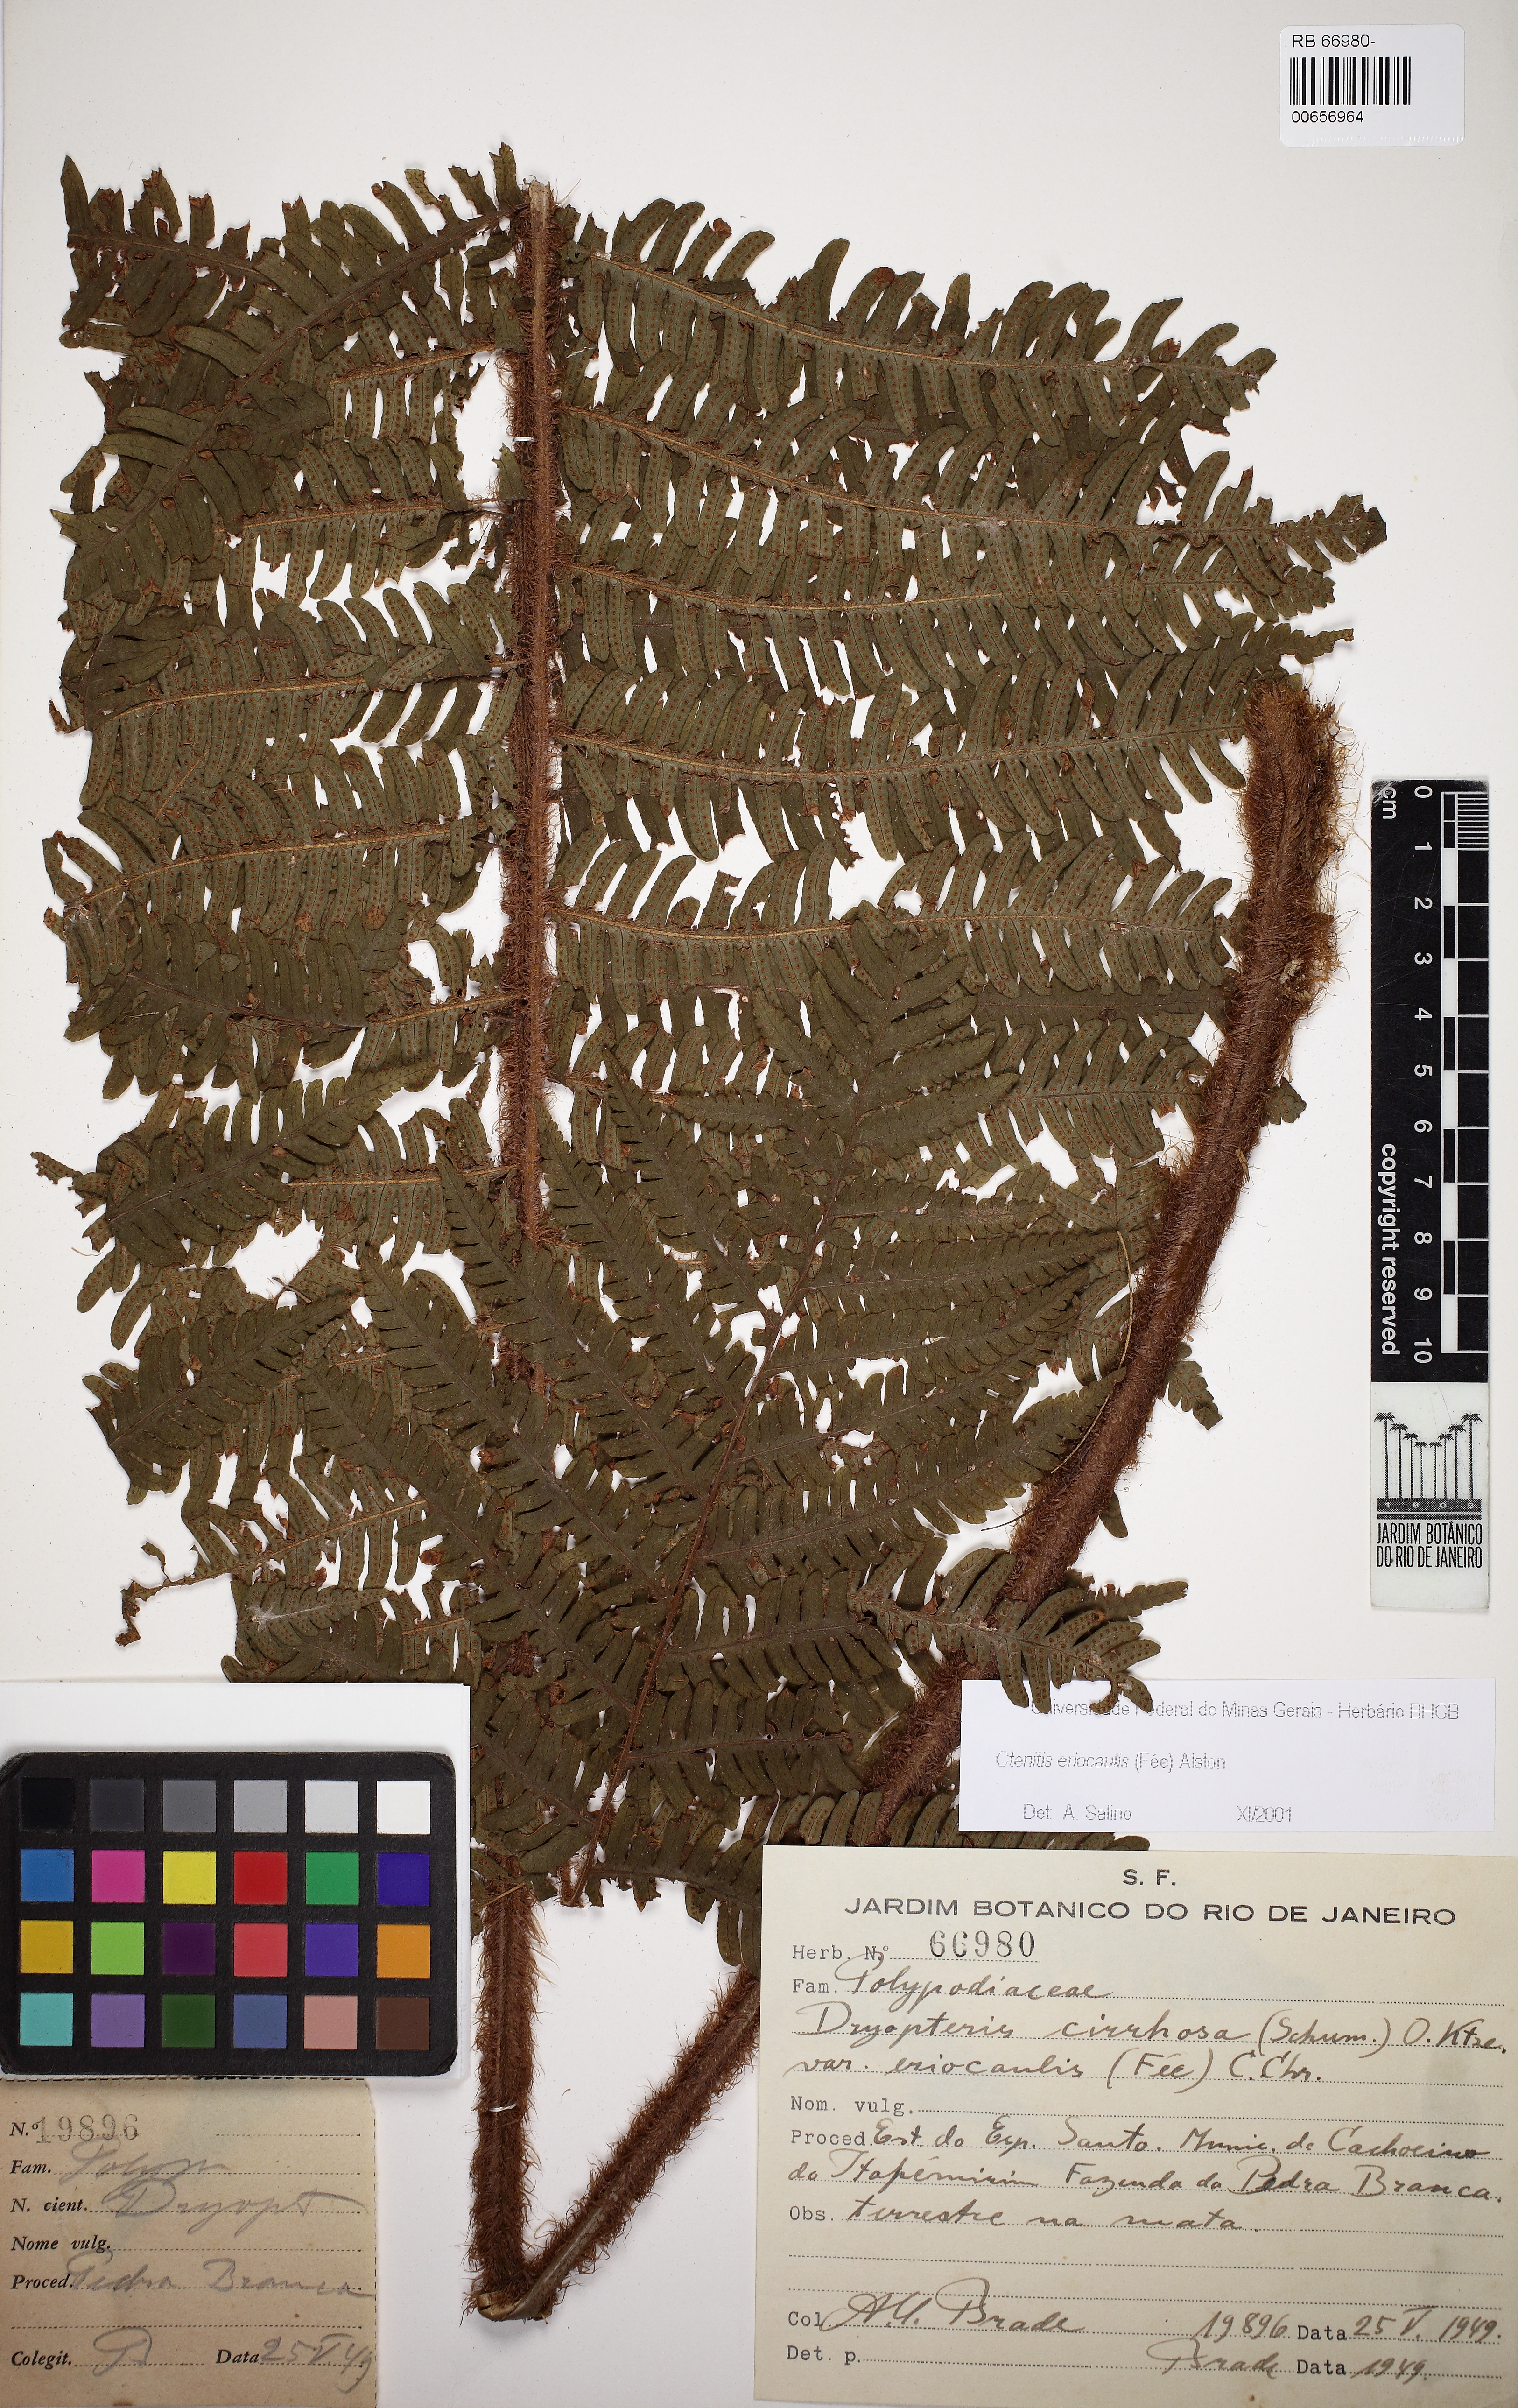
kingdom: Plantae
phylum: Tracheophyta
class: Polypodiopsida
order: Polypodiales
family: Dryopteridaceae
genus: Ctenitis
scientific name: Ctenitis eriocaulis
